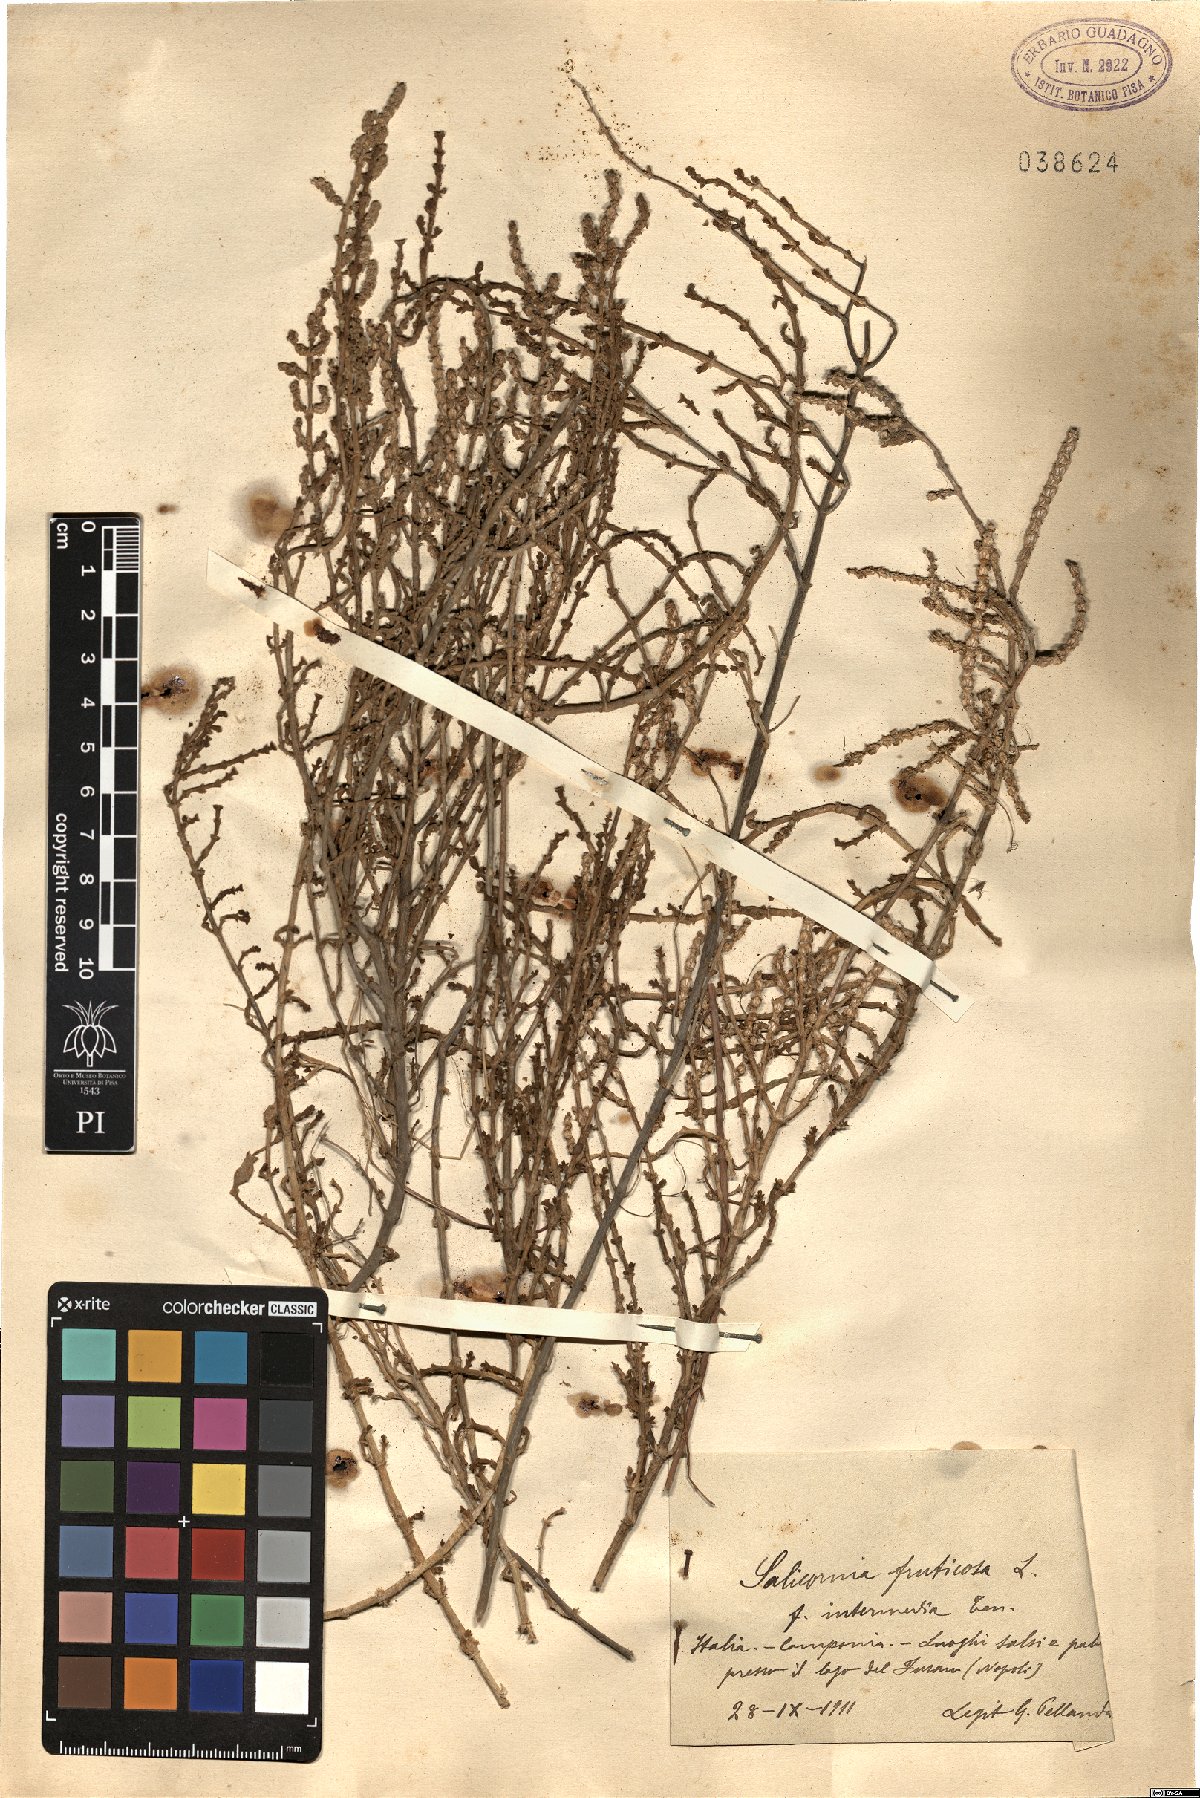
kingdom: Plantae
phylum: Tracheophyta
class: Magnoliopsida
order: Caryophyllales
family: Amaranthaceae
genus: Salicornia
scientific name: Salicornia fruticosa
